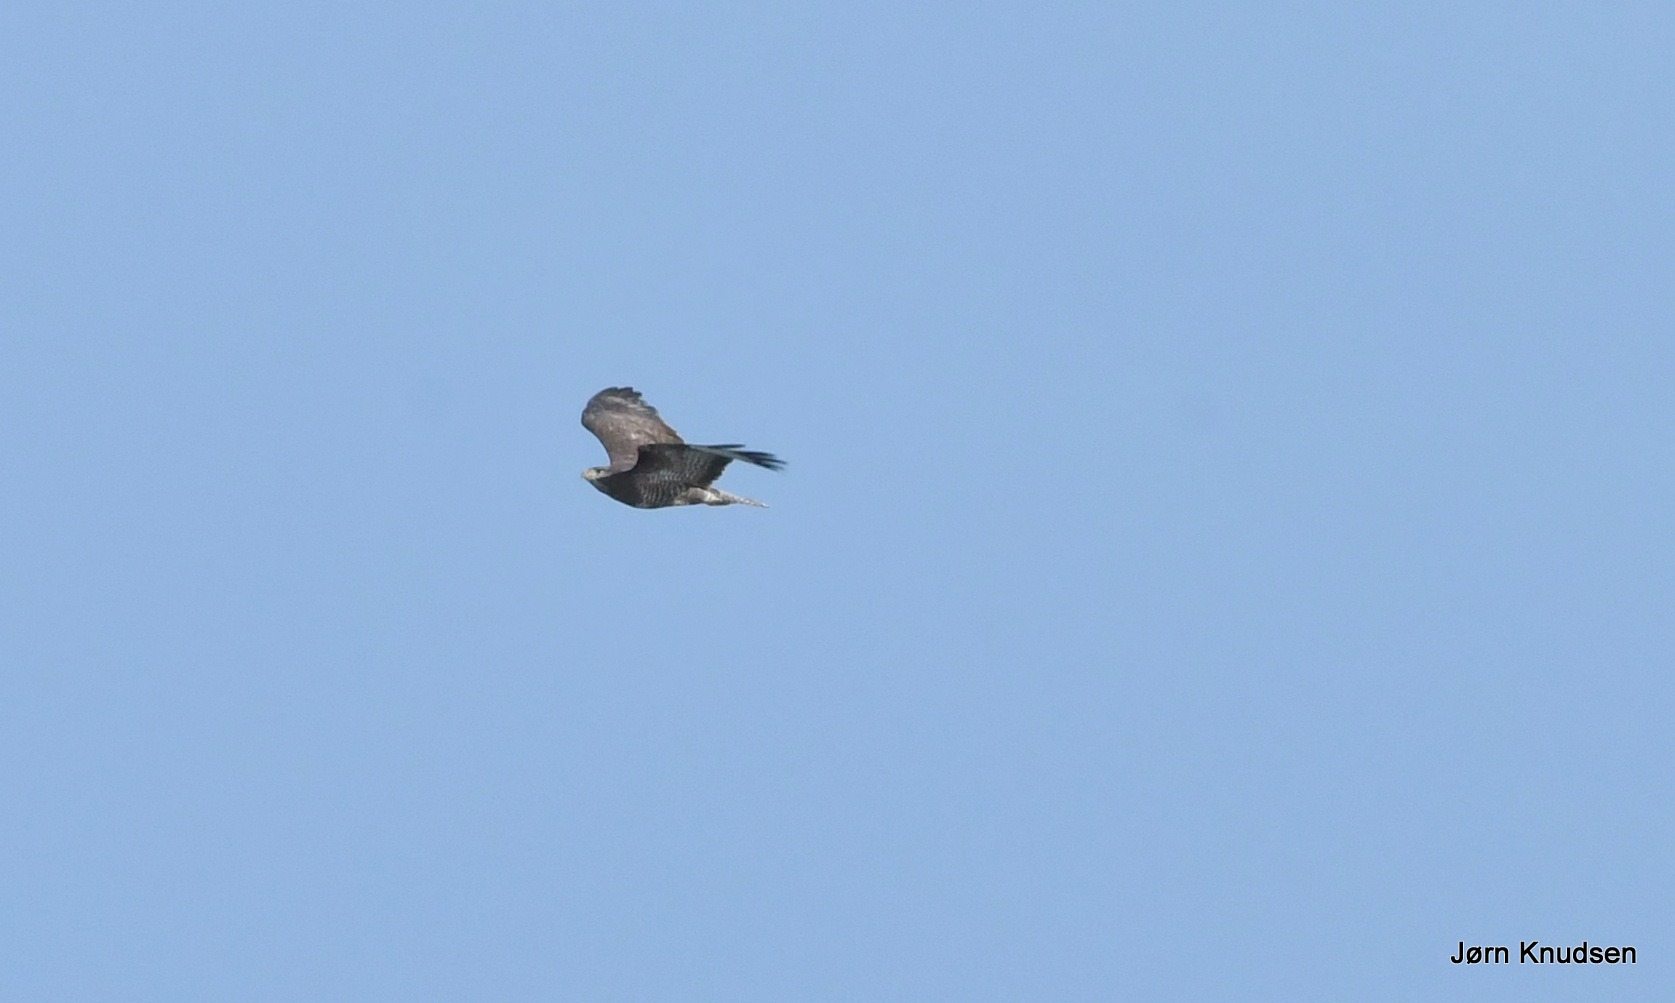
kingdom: Animalia
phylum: Chordata
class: Aves
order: Accipitriformes
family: Accipitridae
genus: Buteo
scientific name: Buteo buteo
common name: Musvåge
